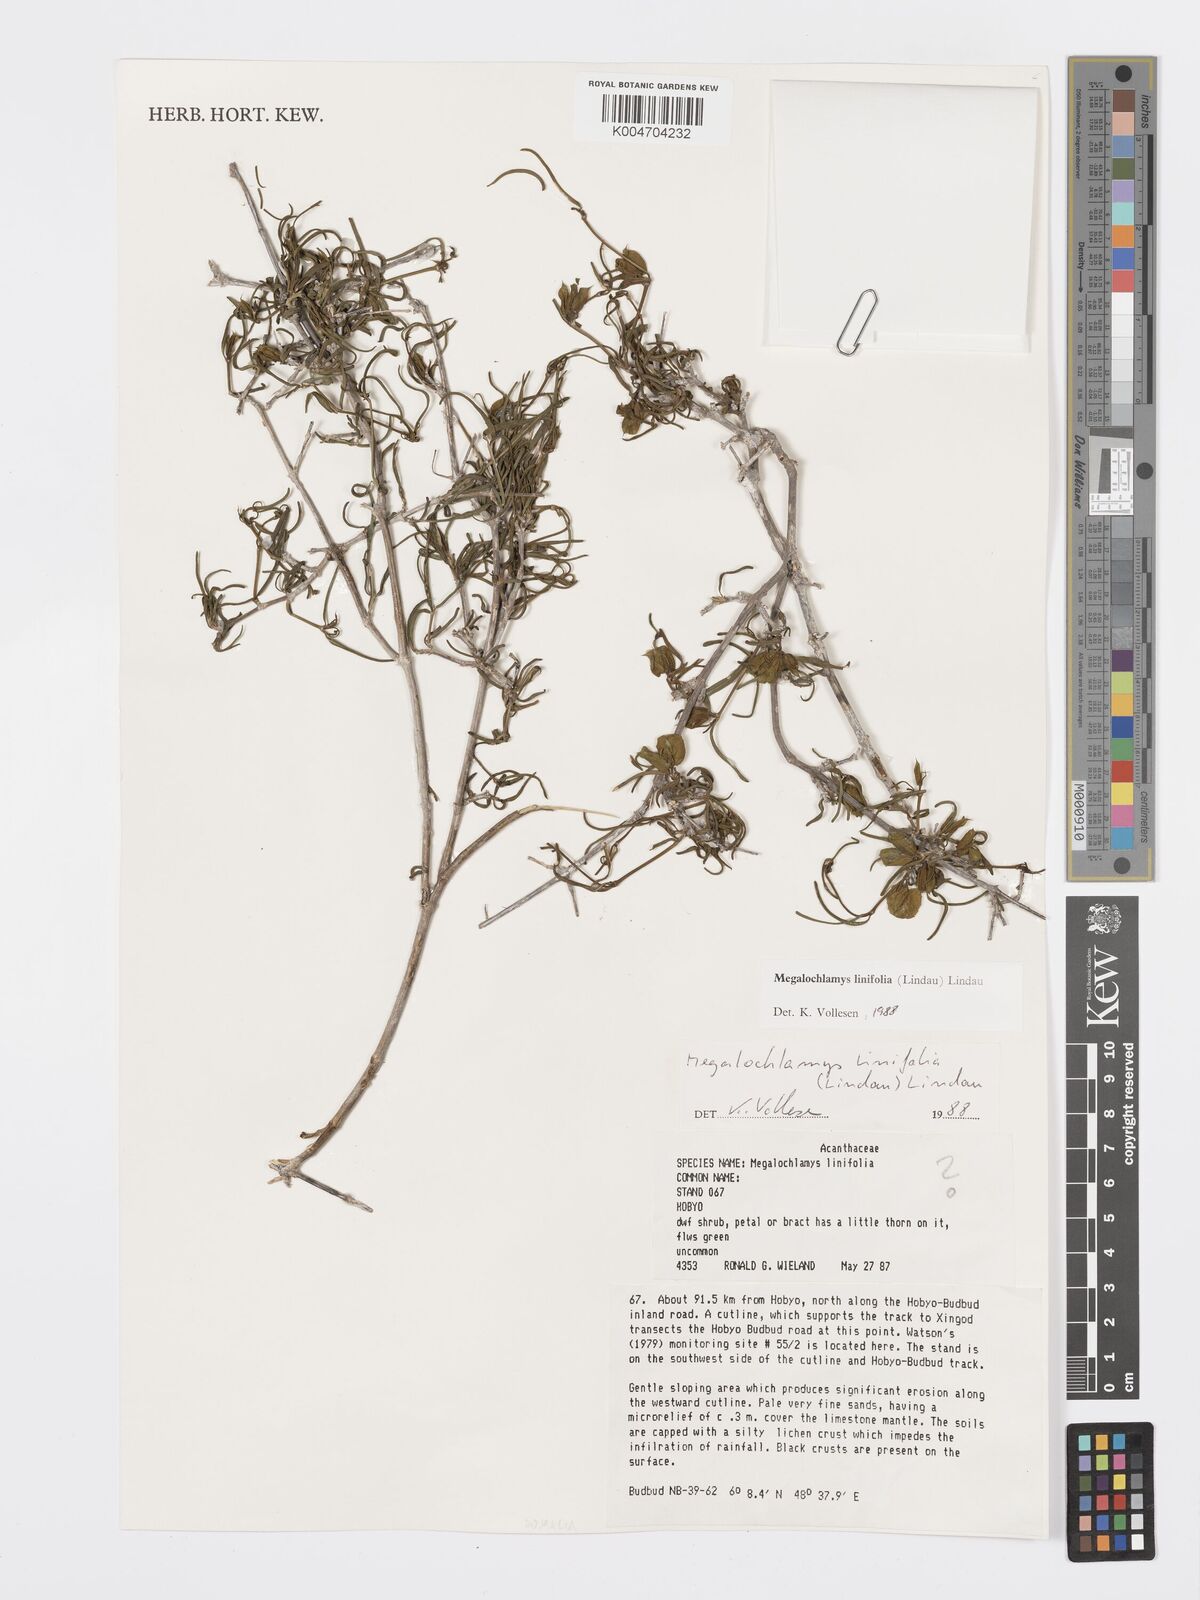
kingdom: Plantae
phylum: Tracheophyta
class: Magnoliopsida
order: Lamiales
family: Acanthaceae
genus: Megalochlamys
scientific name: Megalochlamys linifolia
